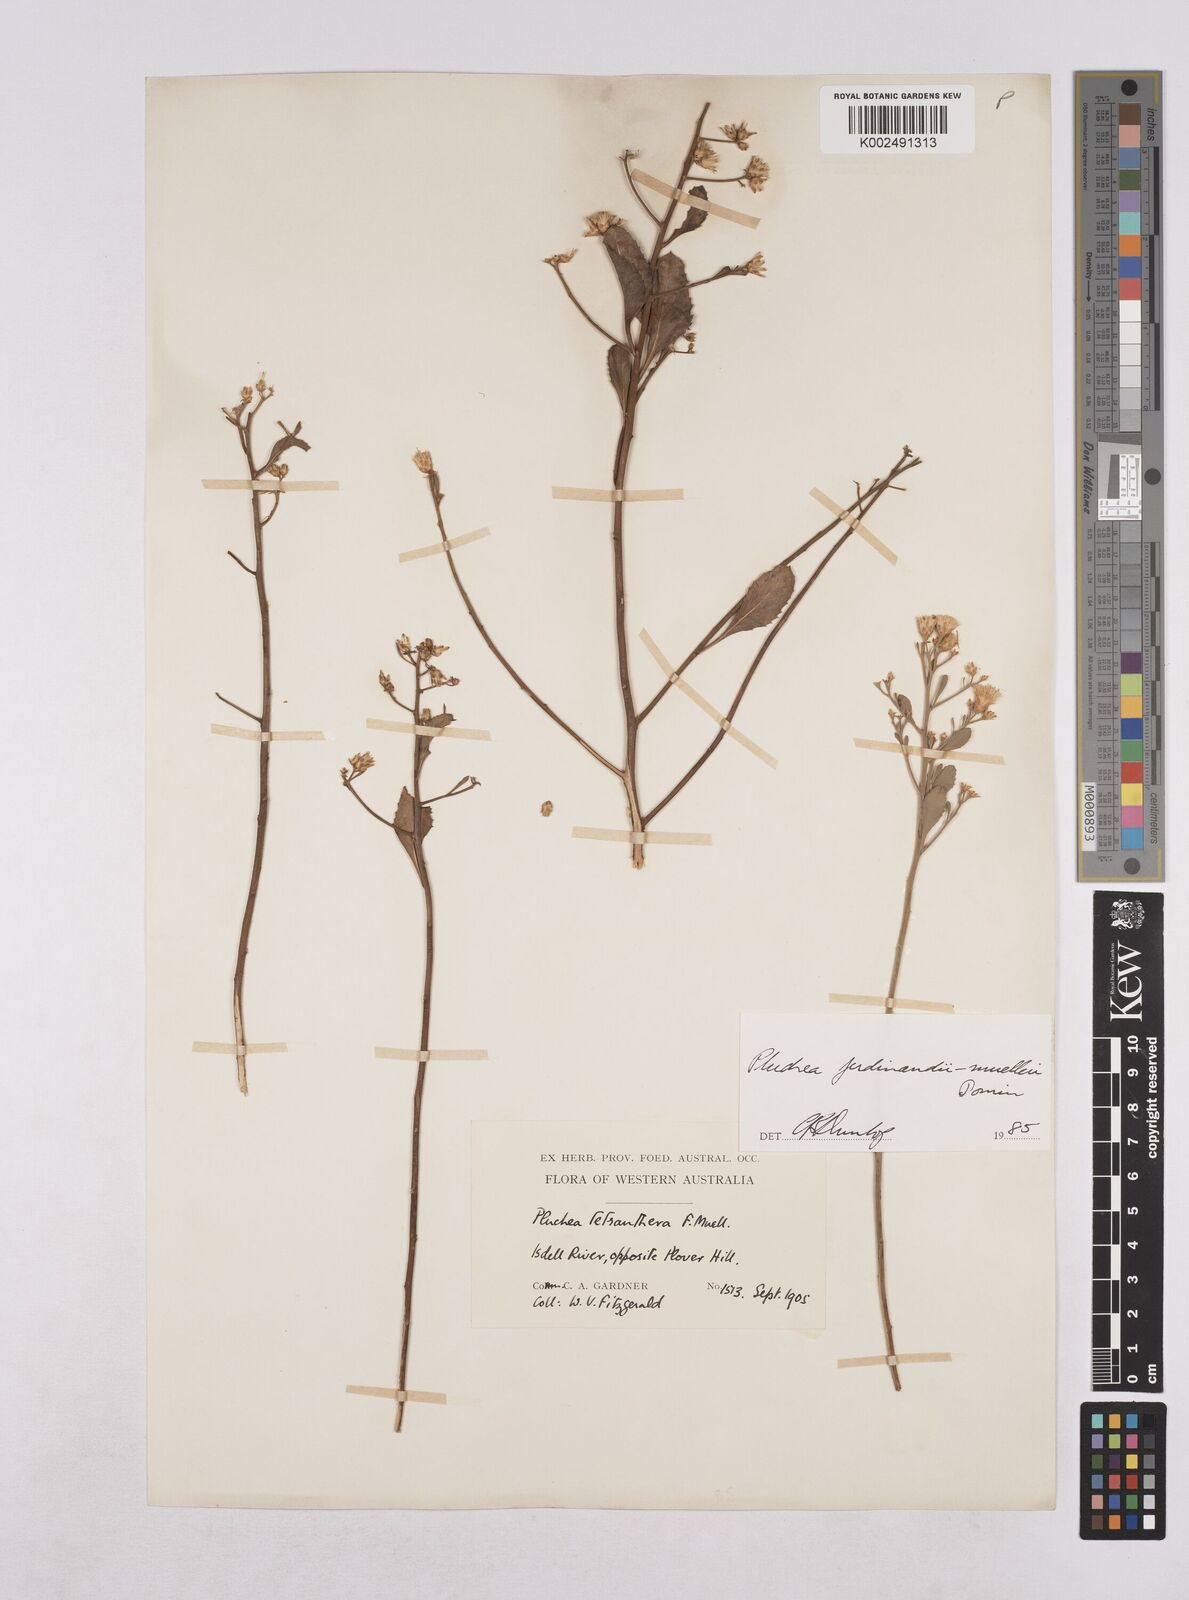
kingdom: Plantae
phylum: Tracheophyta
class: Magnoliopsida
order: Asterales
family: Asteraceae
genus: Pluchea
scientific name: Pluchea ferdinandi-muelleri
